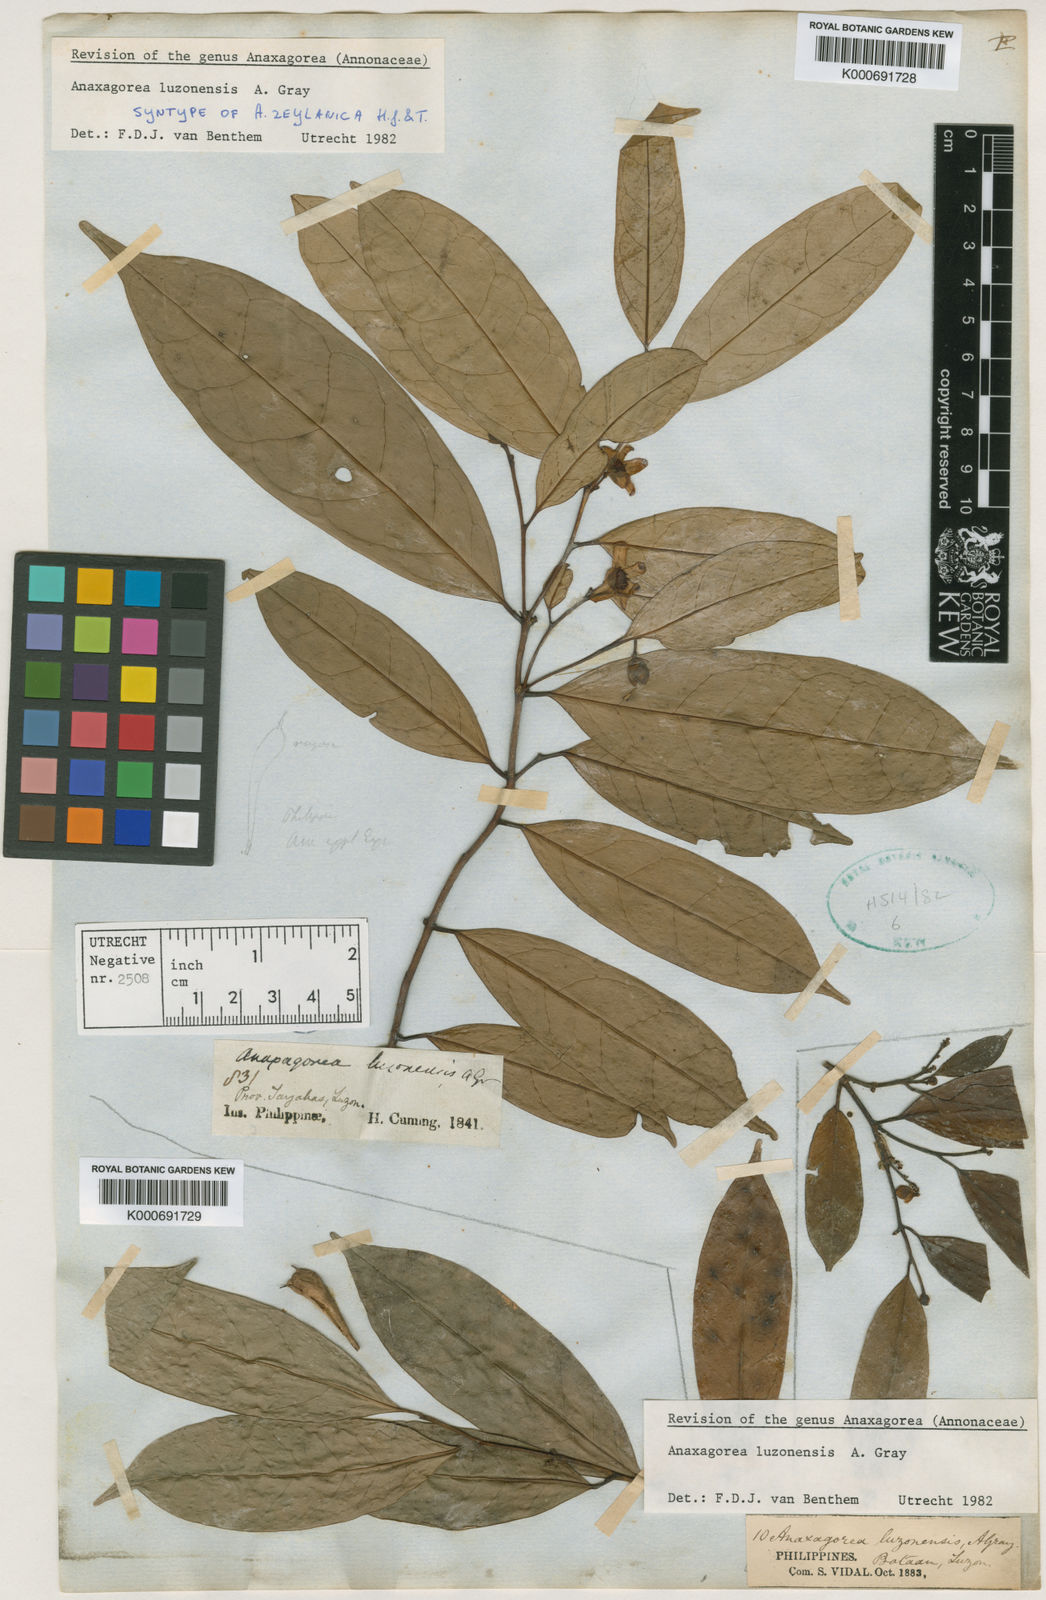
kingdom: Plantae
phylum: Tracheophyta
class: Magnoliopsida
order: Magnoliales
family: Annonaceae
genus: Anaxagorea
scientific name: Anaxagorea luzonensis
